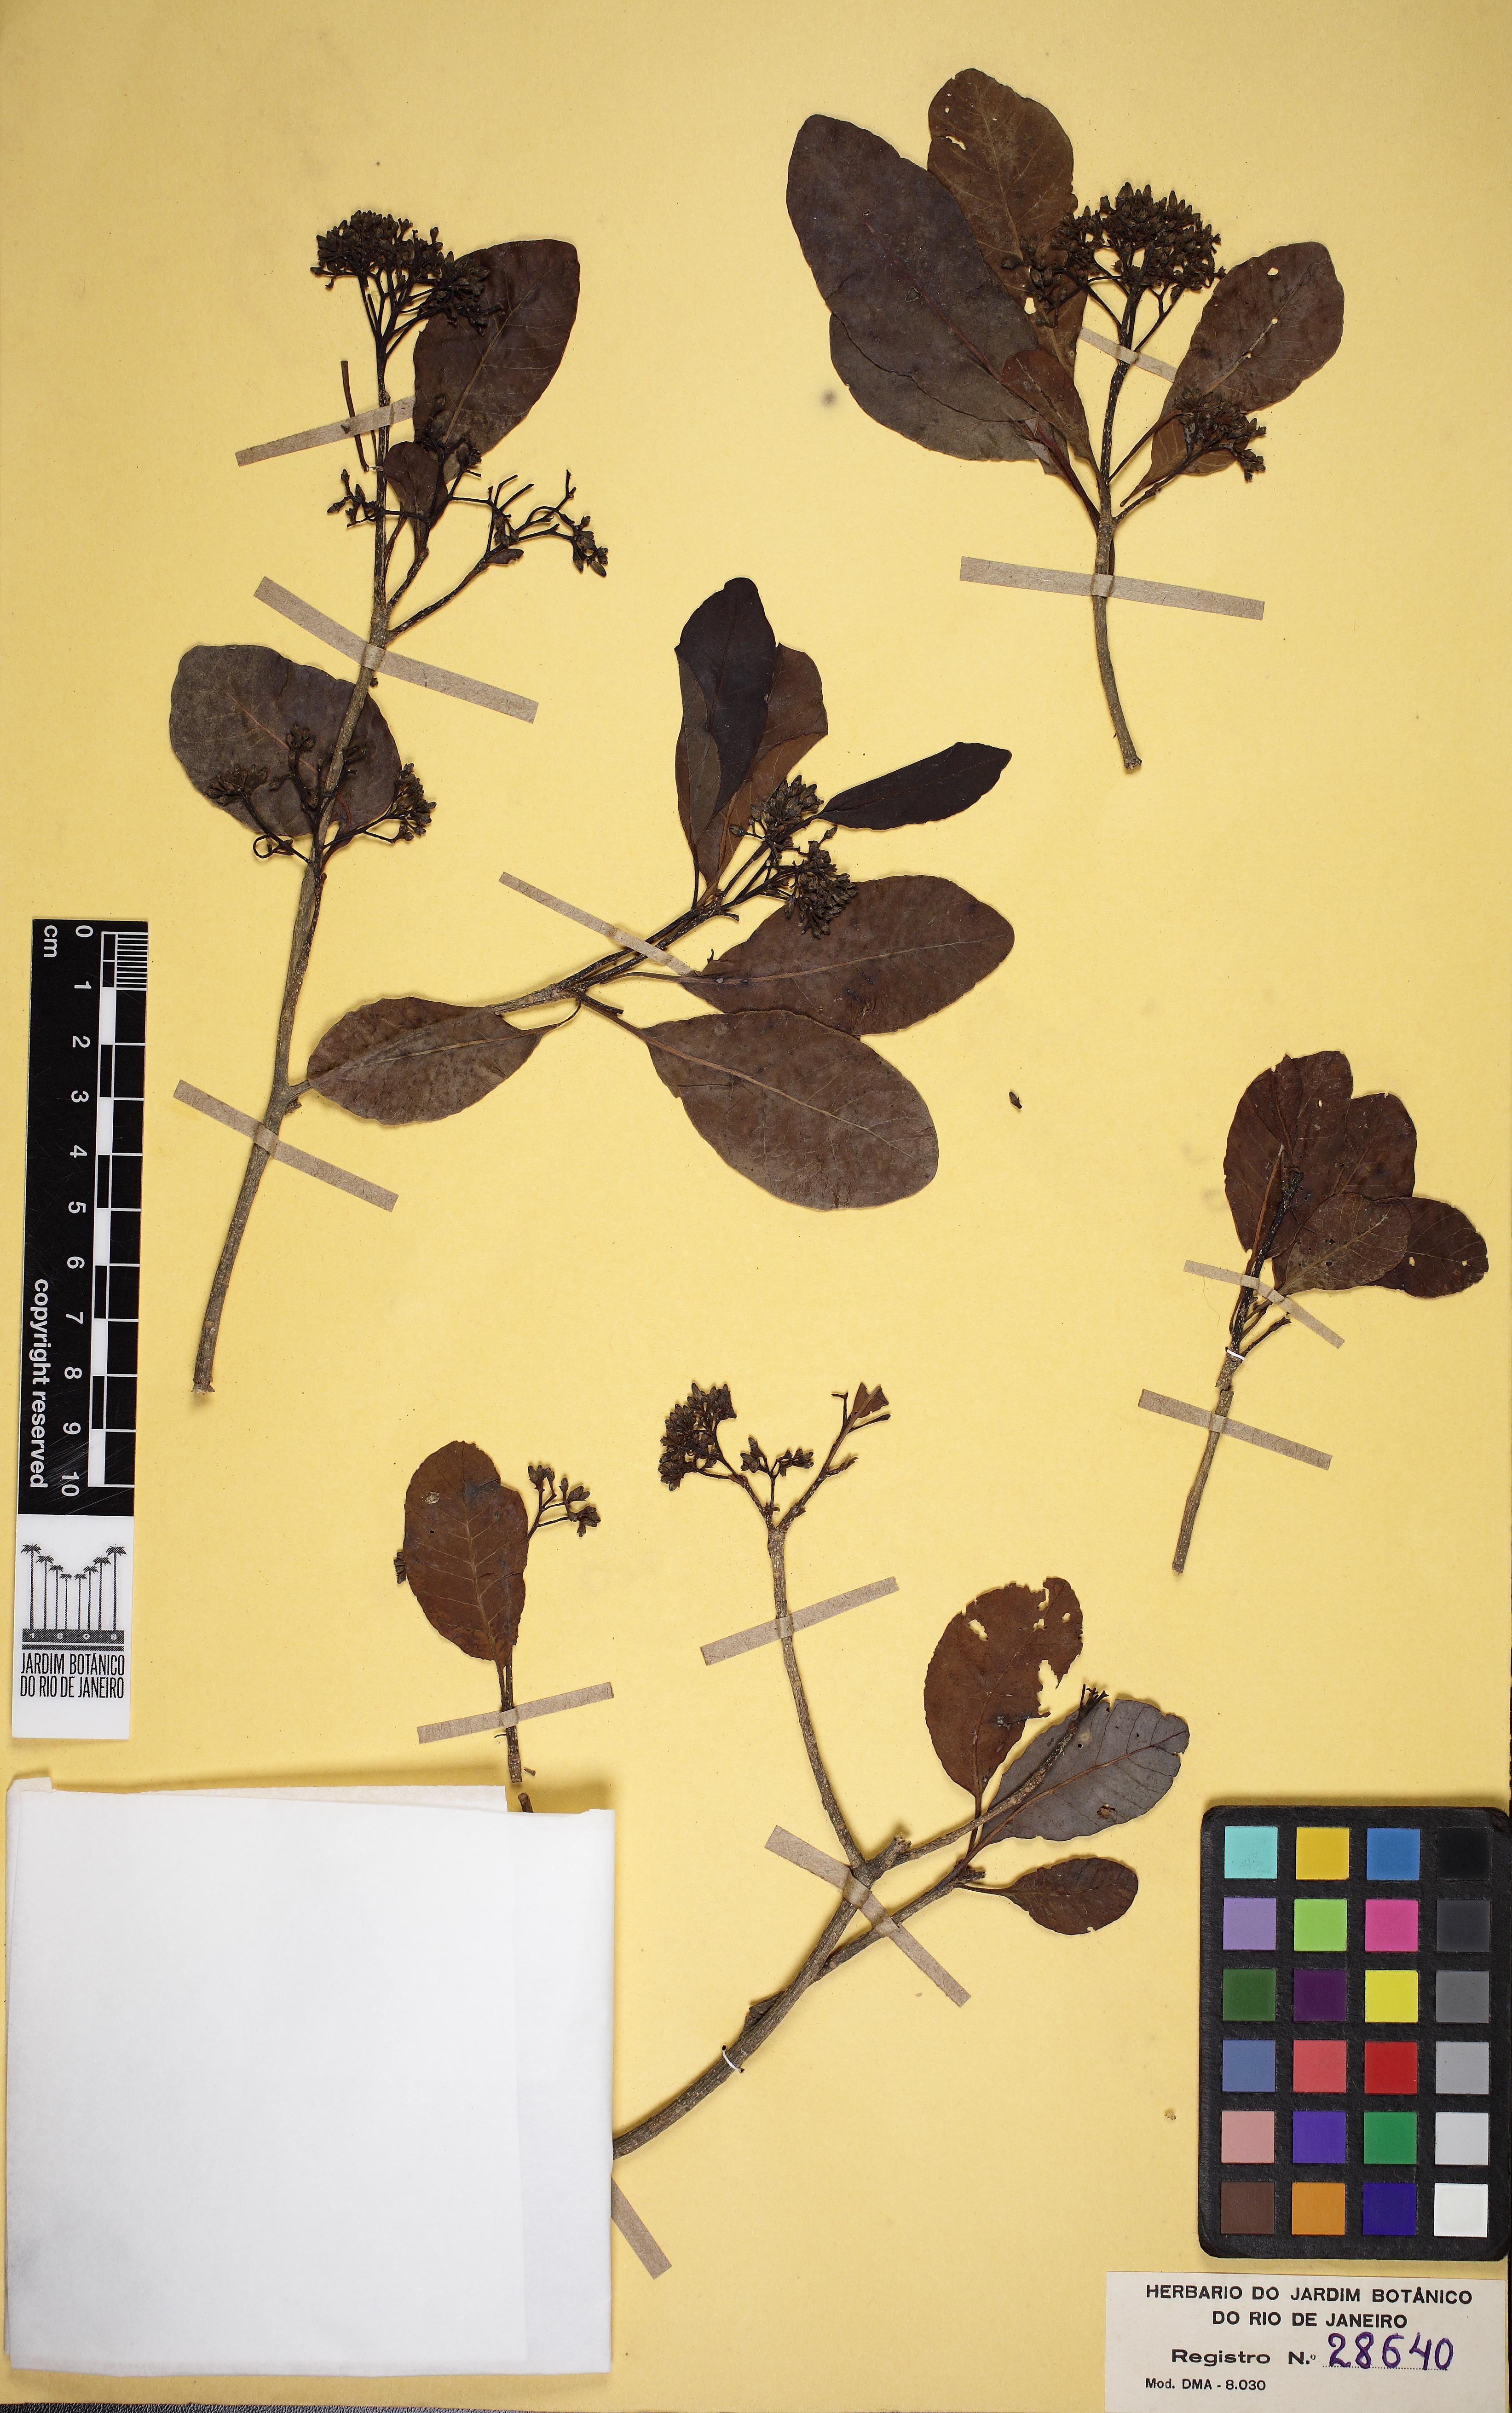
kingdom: Plantae
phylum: Tracheophyta
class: Magnoliopsida
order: Gentianales
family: Apocynaceae
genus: Aspidosperma
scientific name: Aspidosperma pyricollum
